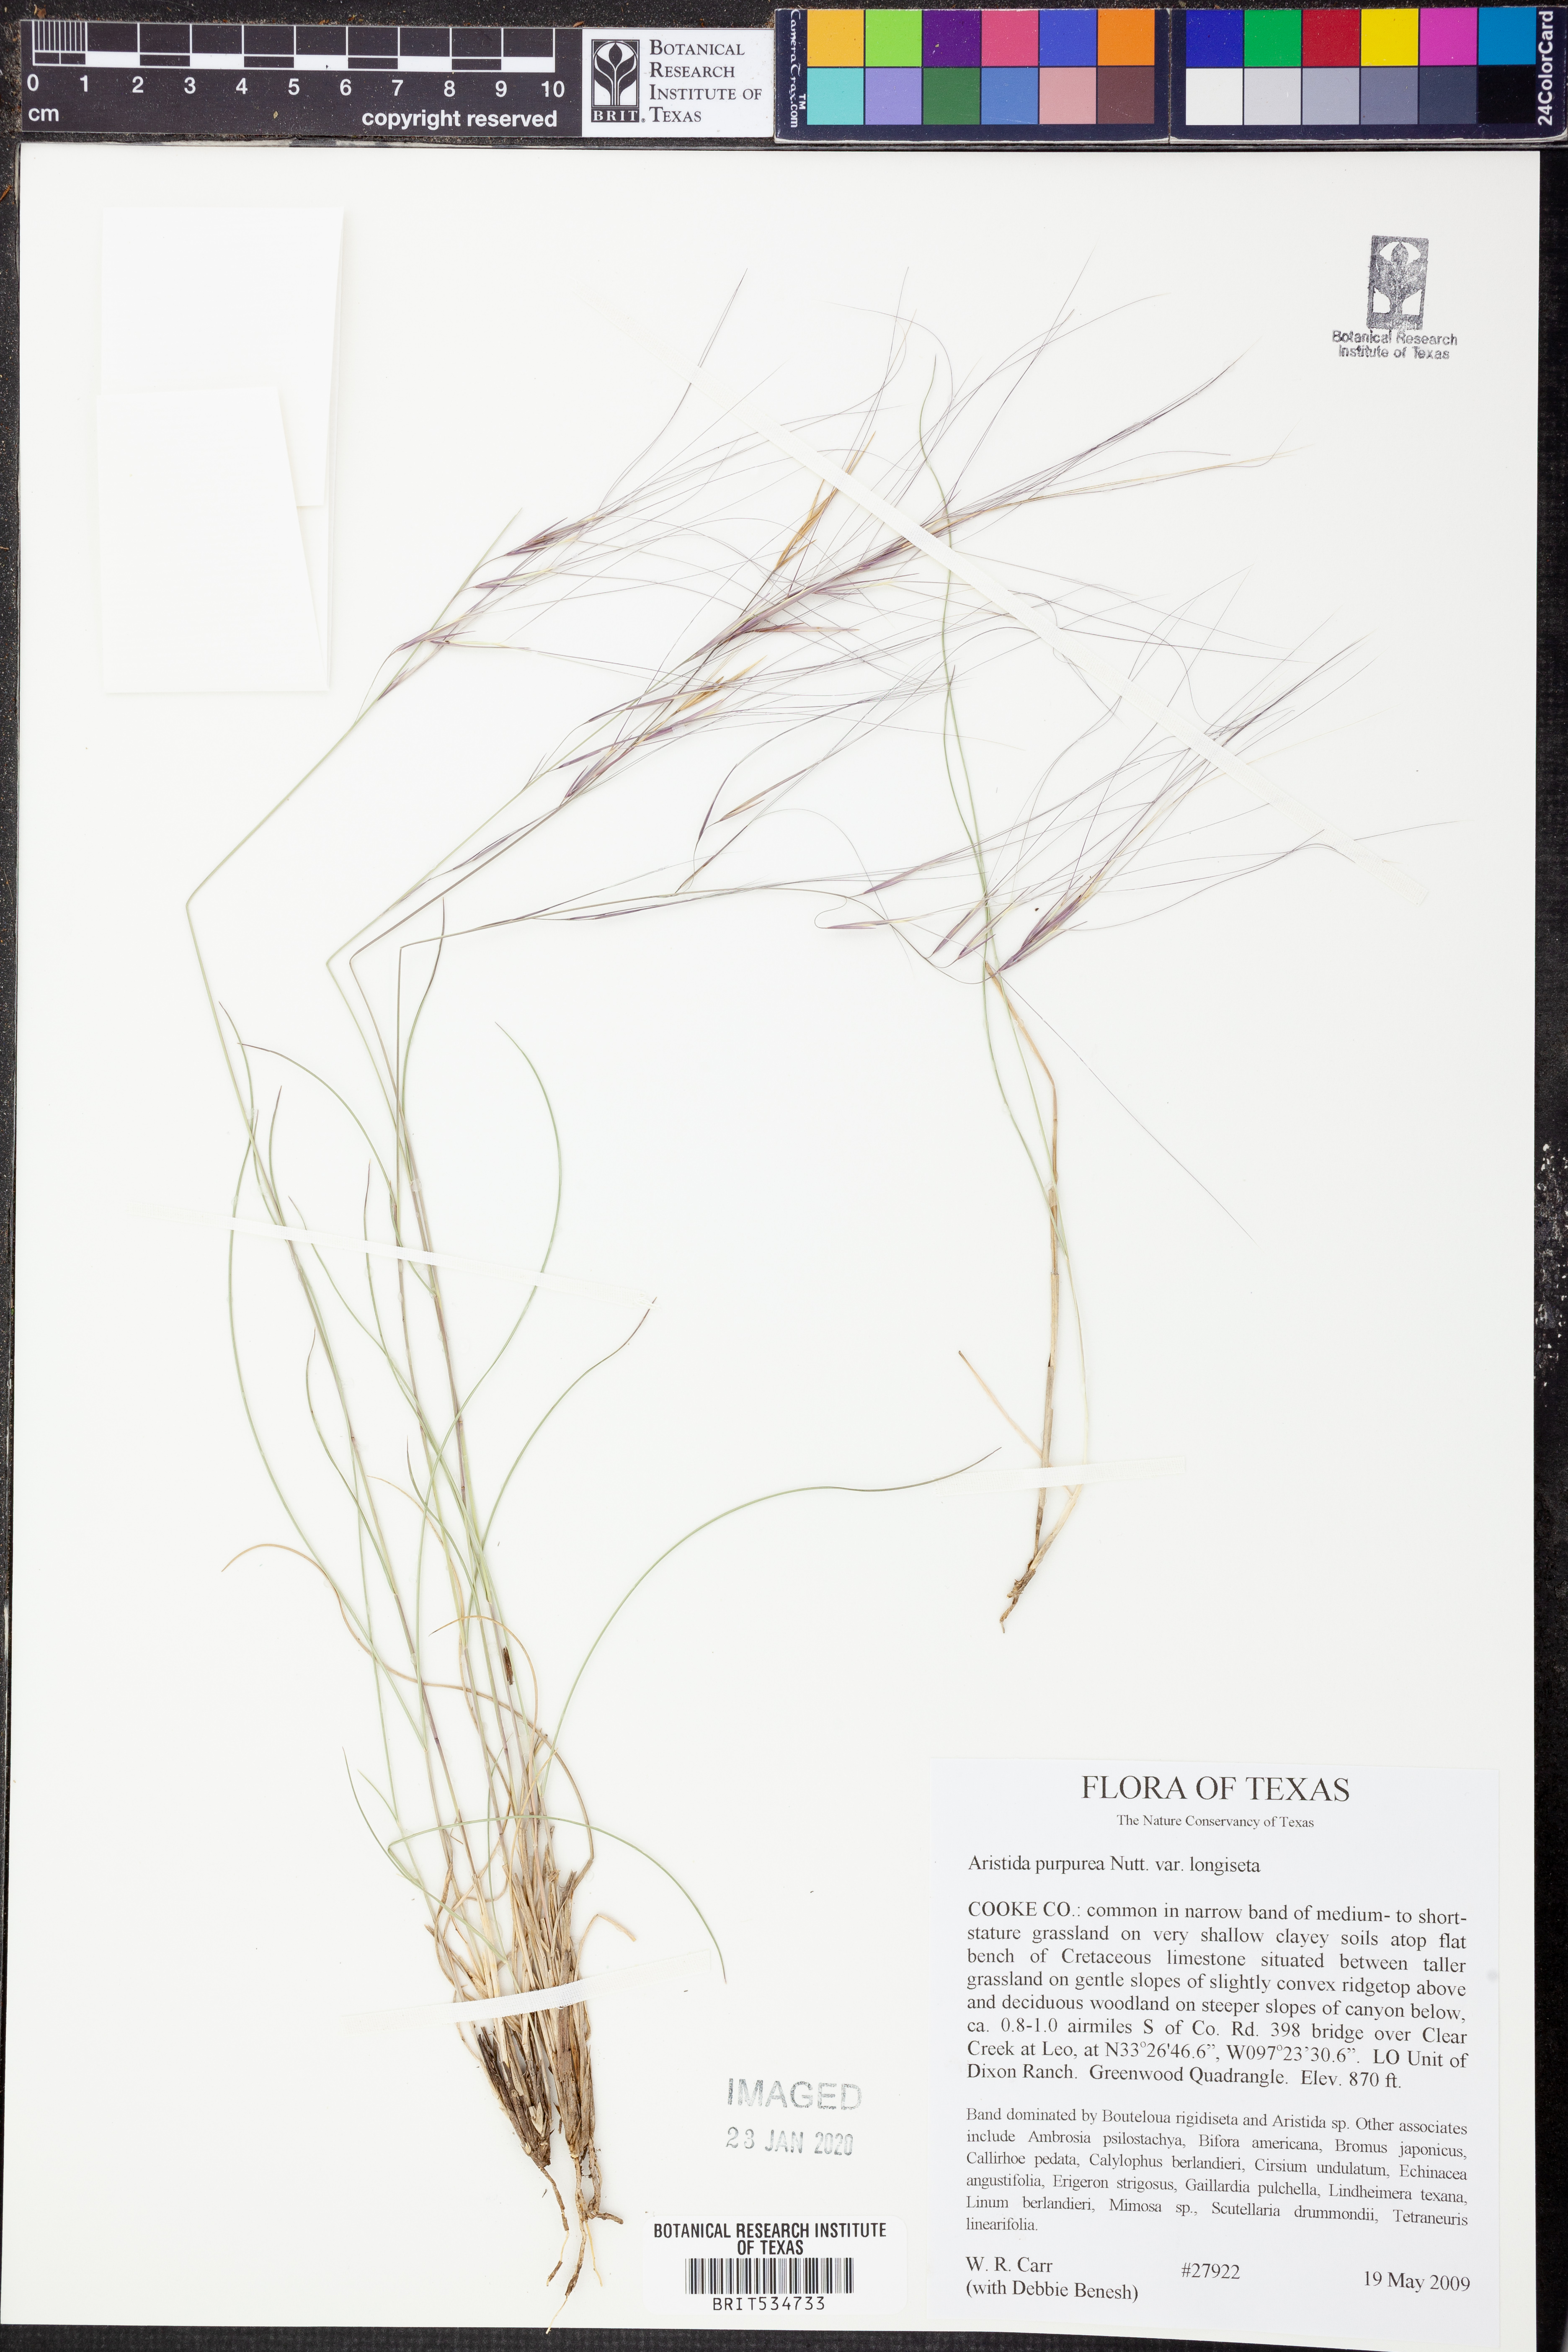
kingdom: Plantae
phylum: Tracheophyta
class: Liliopsida
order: Poales
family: Poaceae
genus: Aristida
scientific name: Aristida longiseta
